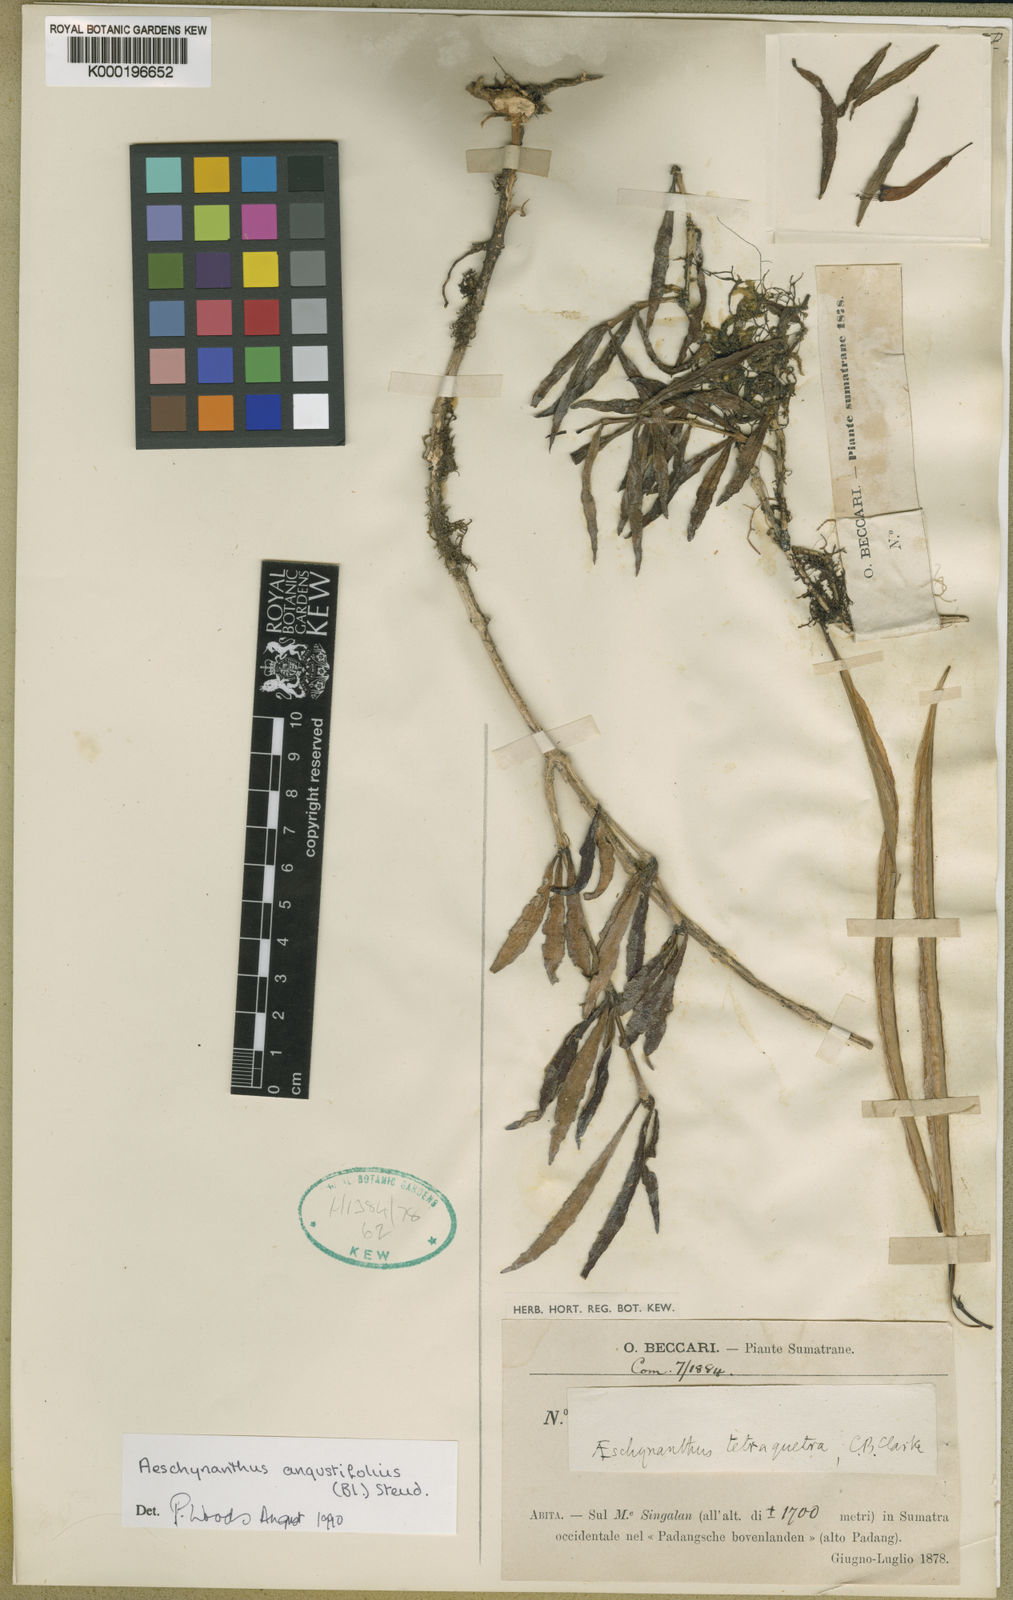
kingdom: Plantae
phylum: Tracheophyta
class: Magnoliopsida
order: Lamiales
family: Gesneriaceae
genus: Aeschynanthus
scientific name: Aeschynanthus angustifolius
